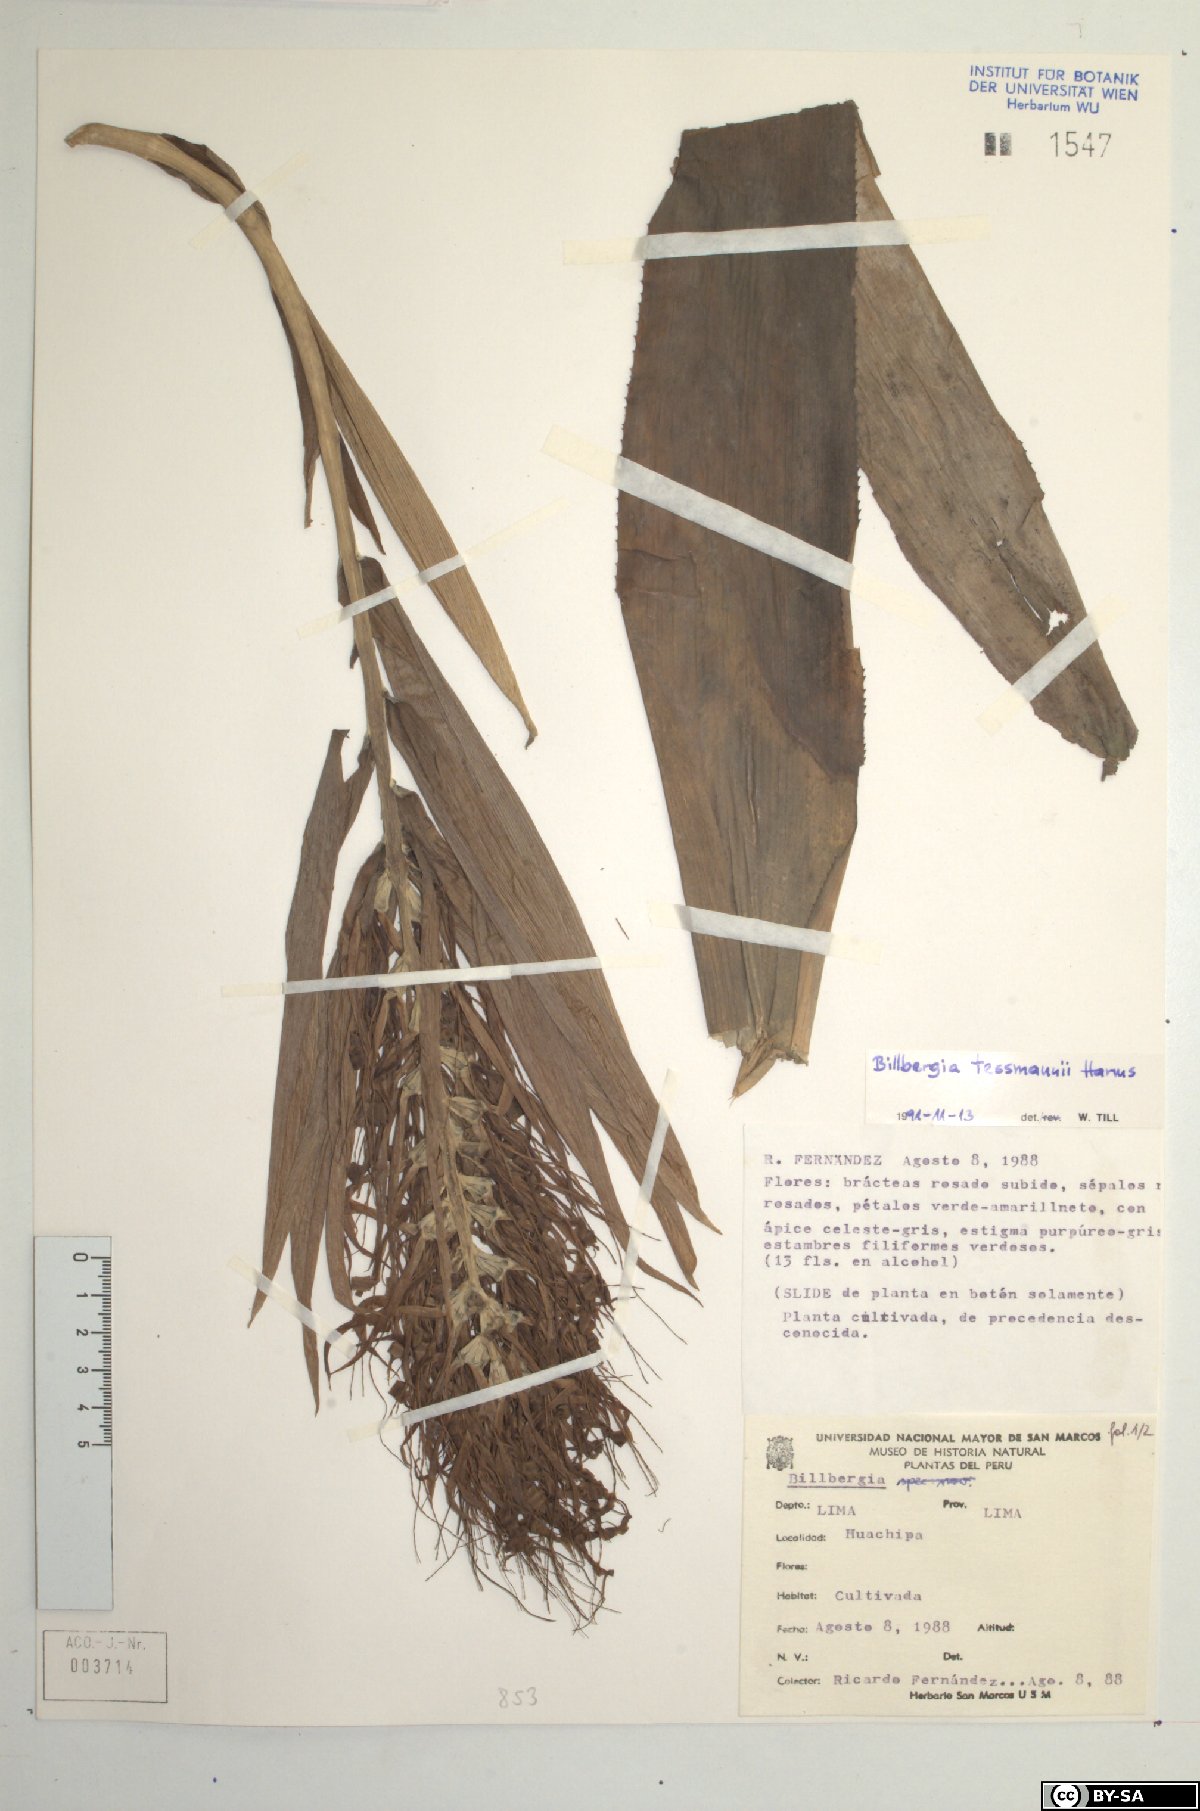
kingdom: Plantae
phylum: Tracheophyta
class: Liliopsida
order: Poales
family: Bromeliaceae
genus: Billbergia
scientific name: Billbergia tessmannii
